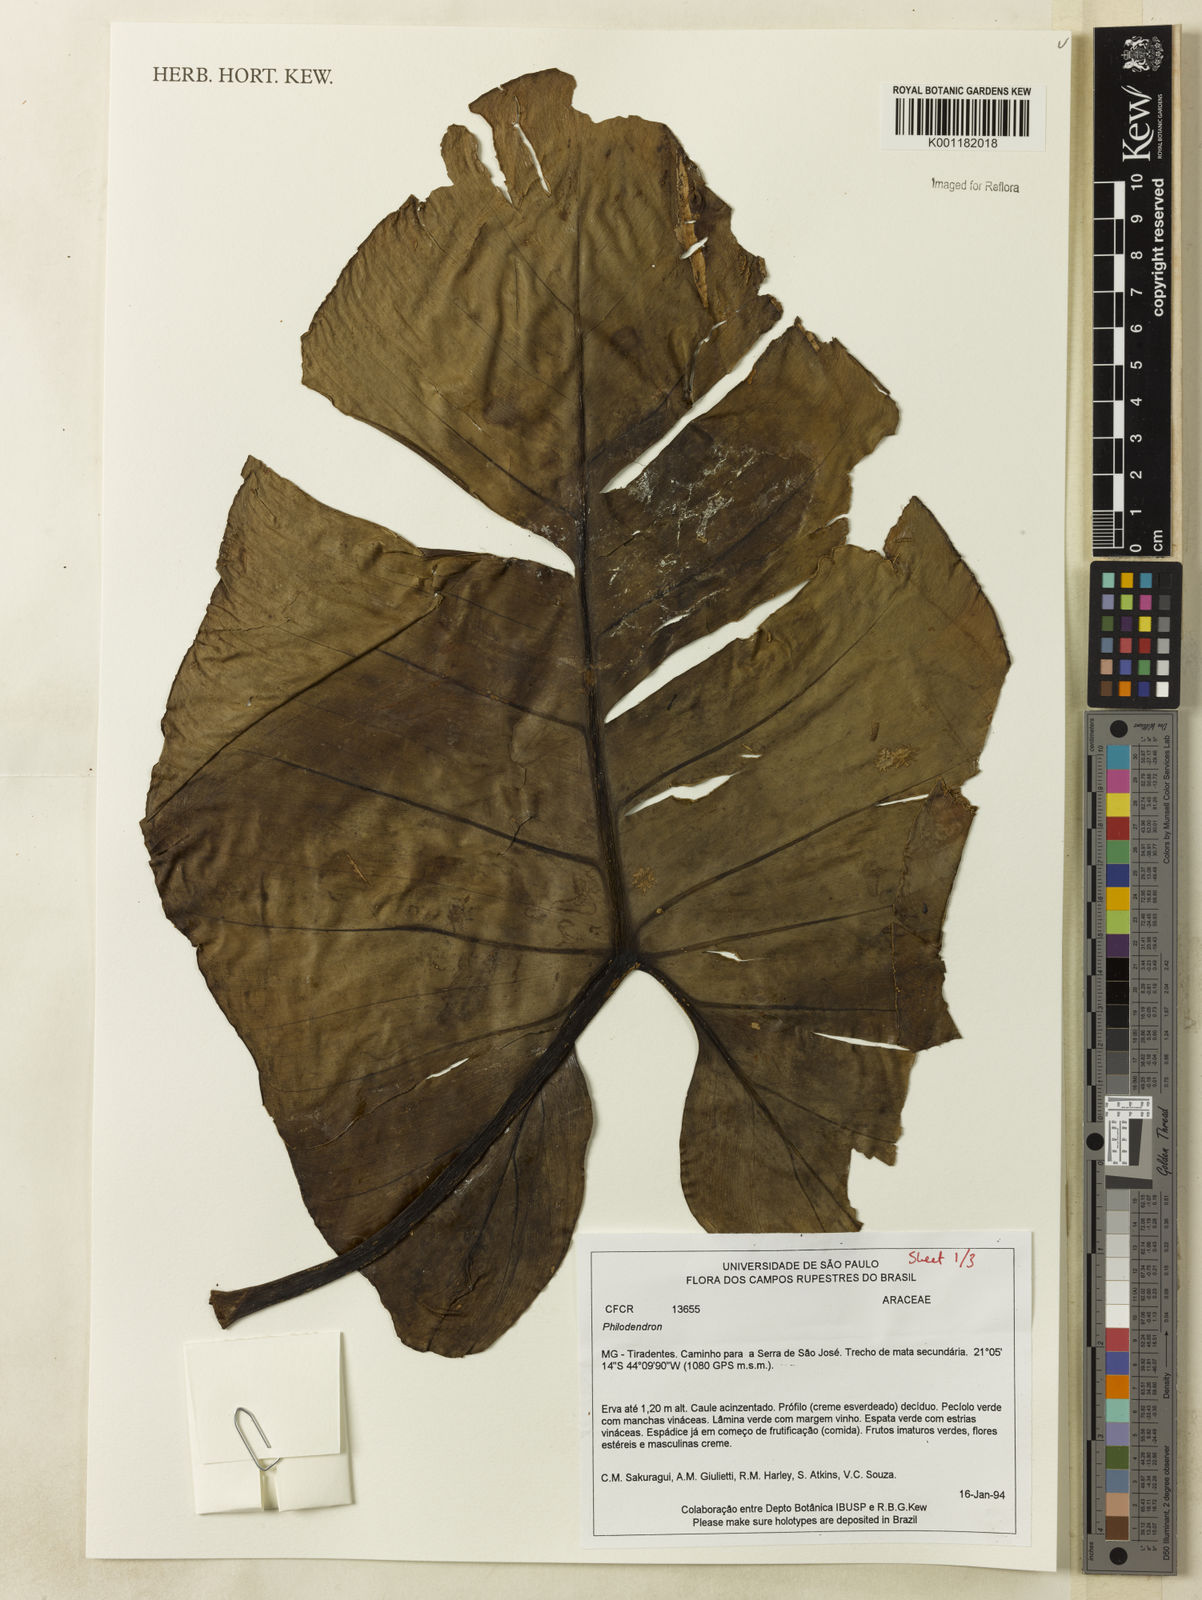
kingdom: Plantae
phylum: Tracheophyta
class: Liliopsida
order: Alismatales
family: Araceae
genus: Philodendron
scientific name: Philodendron
